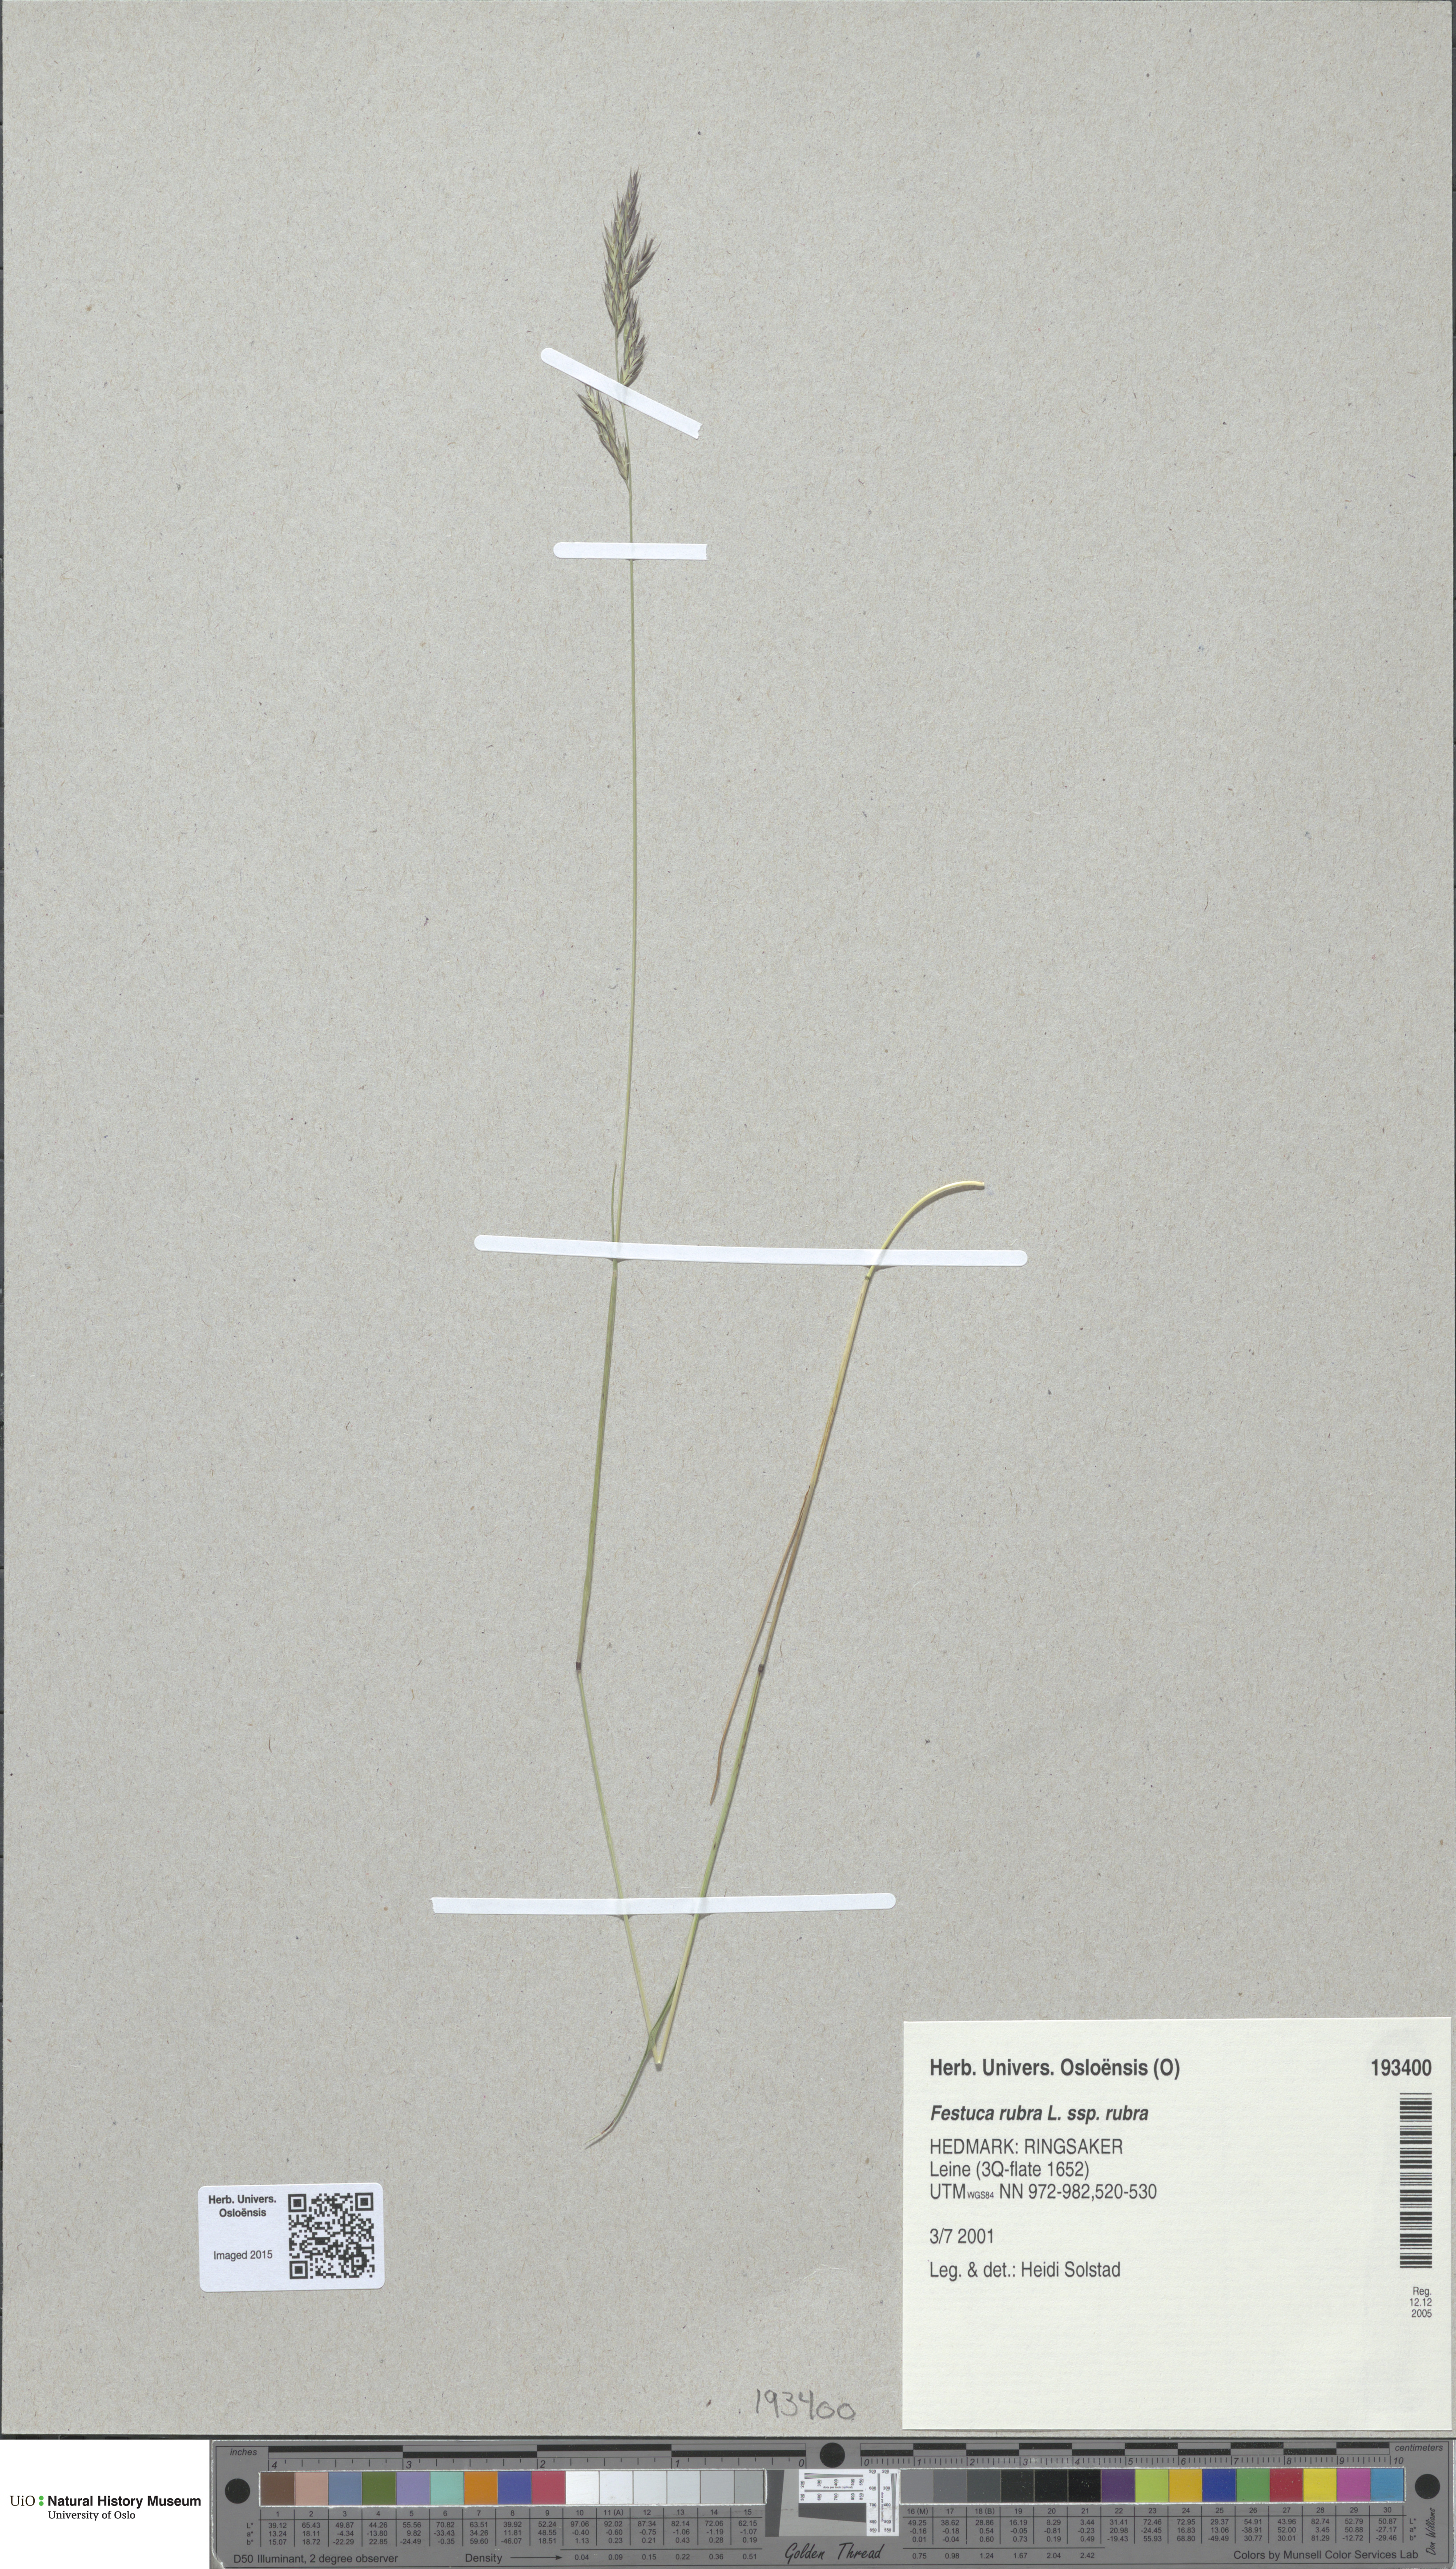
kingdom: Plantae
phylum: Tracheophyta
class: Liliopsida
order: Poales
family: Poaceae
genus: Festuca
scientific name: Festuca rubra
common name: Red fescue
